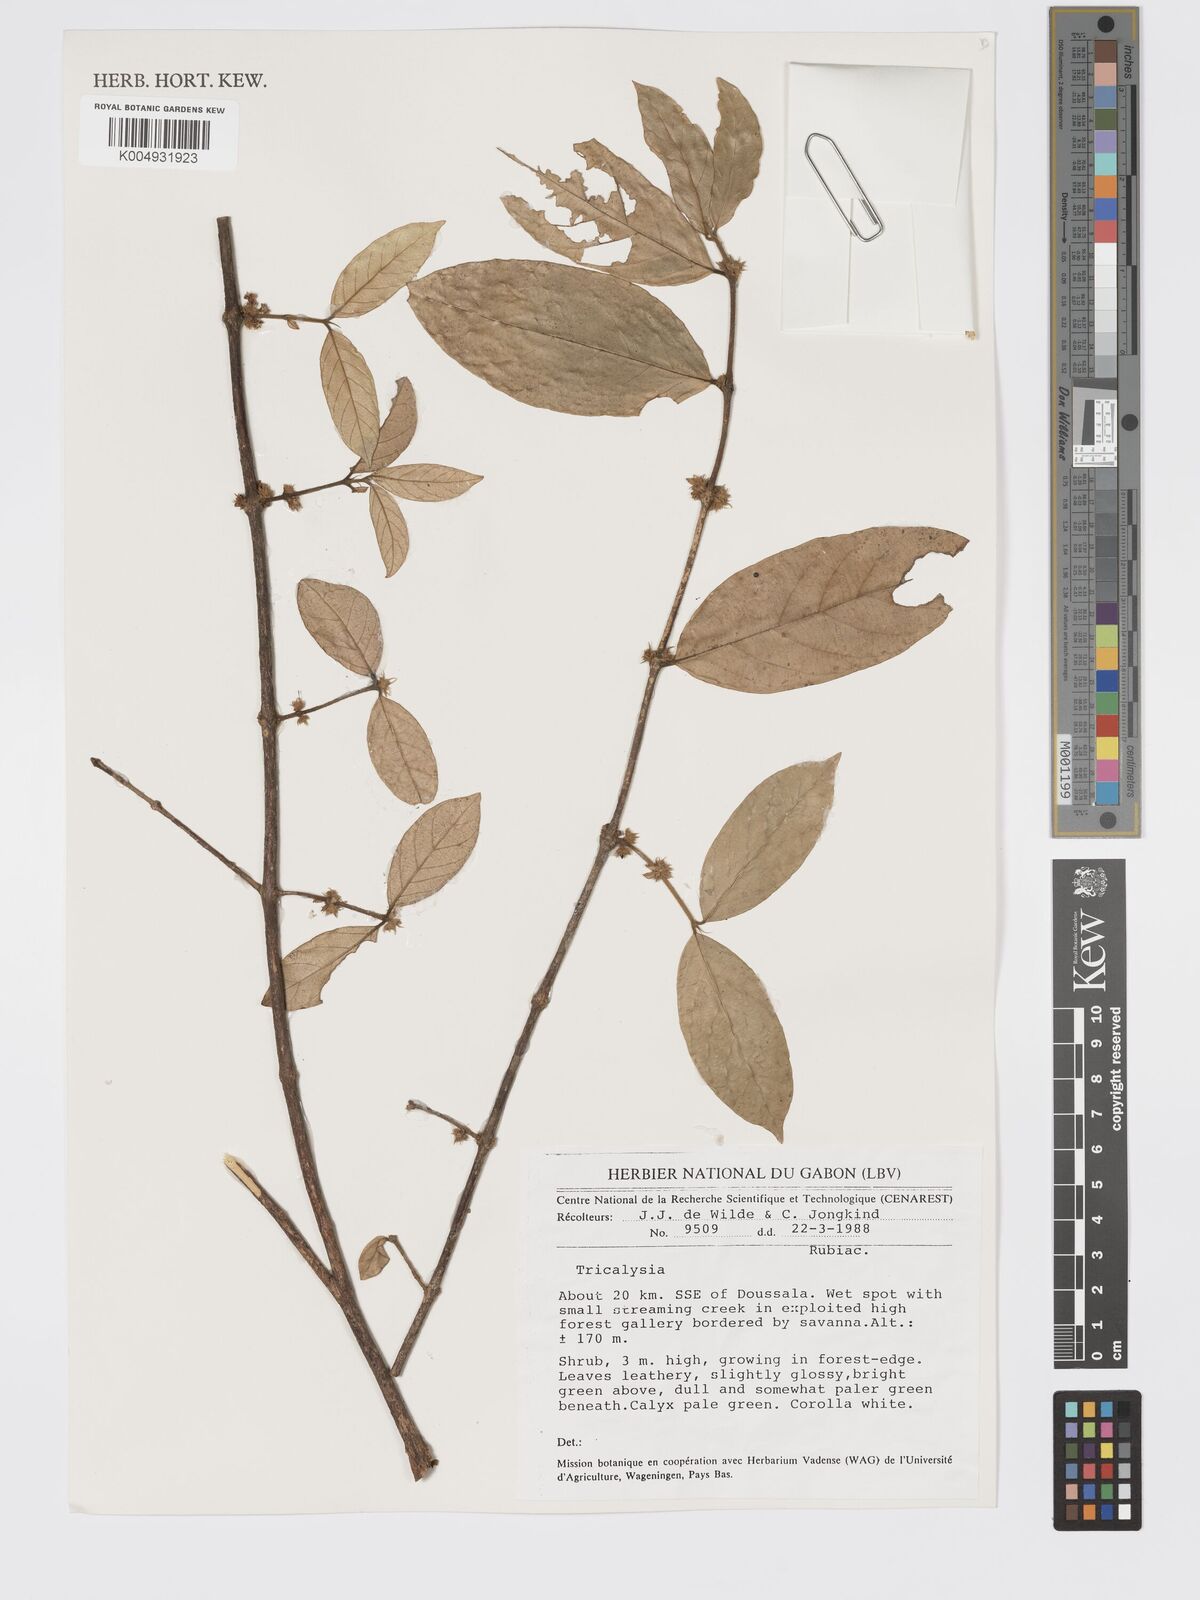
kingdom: Plantae
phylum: Tracheophyta
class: Magnoliopsida
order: Gentianales
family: Rubiaceae
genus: Tricalysia
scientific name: Tricalysia
